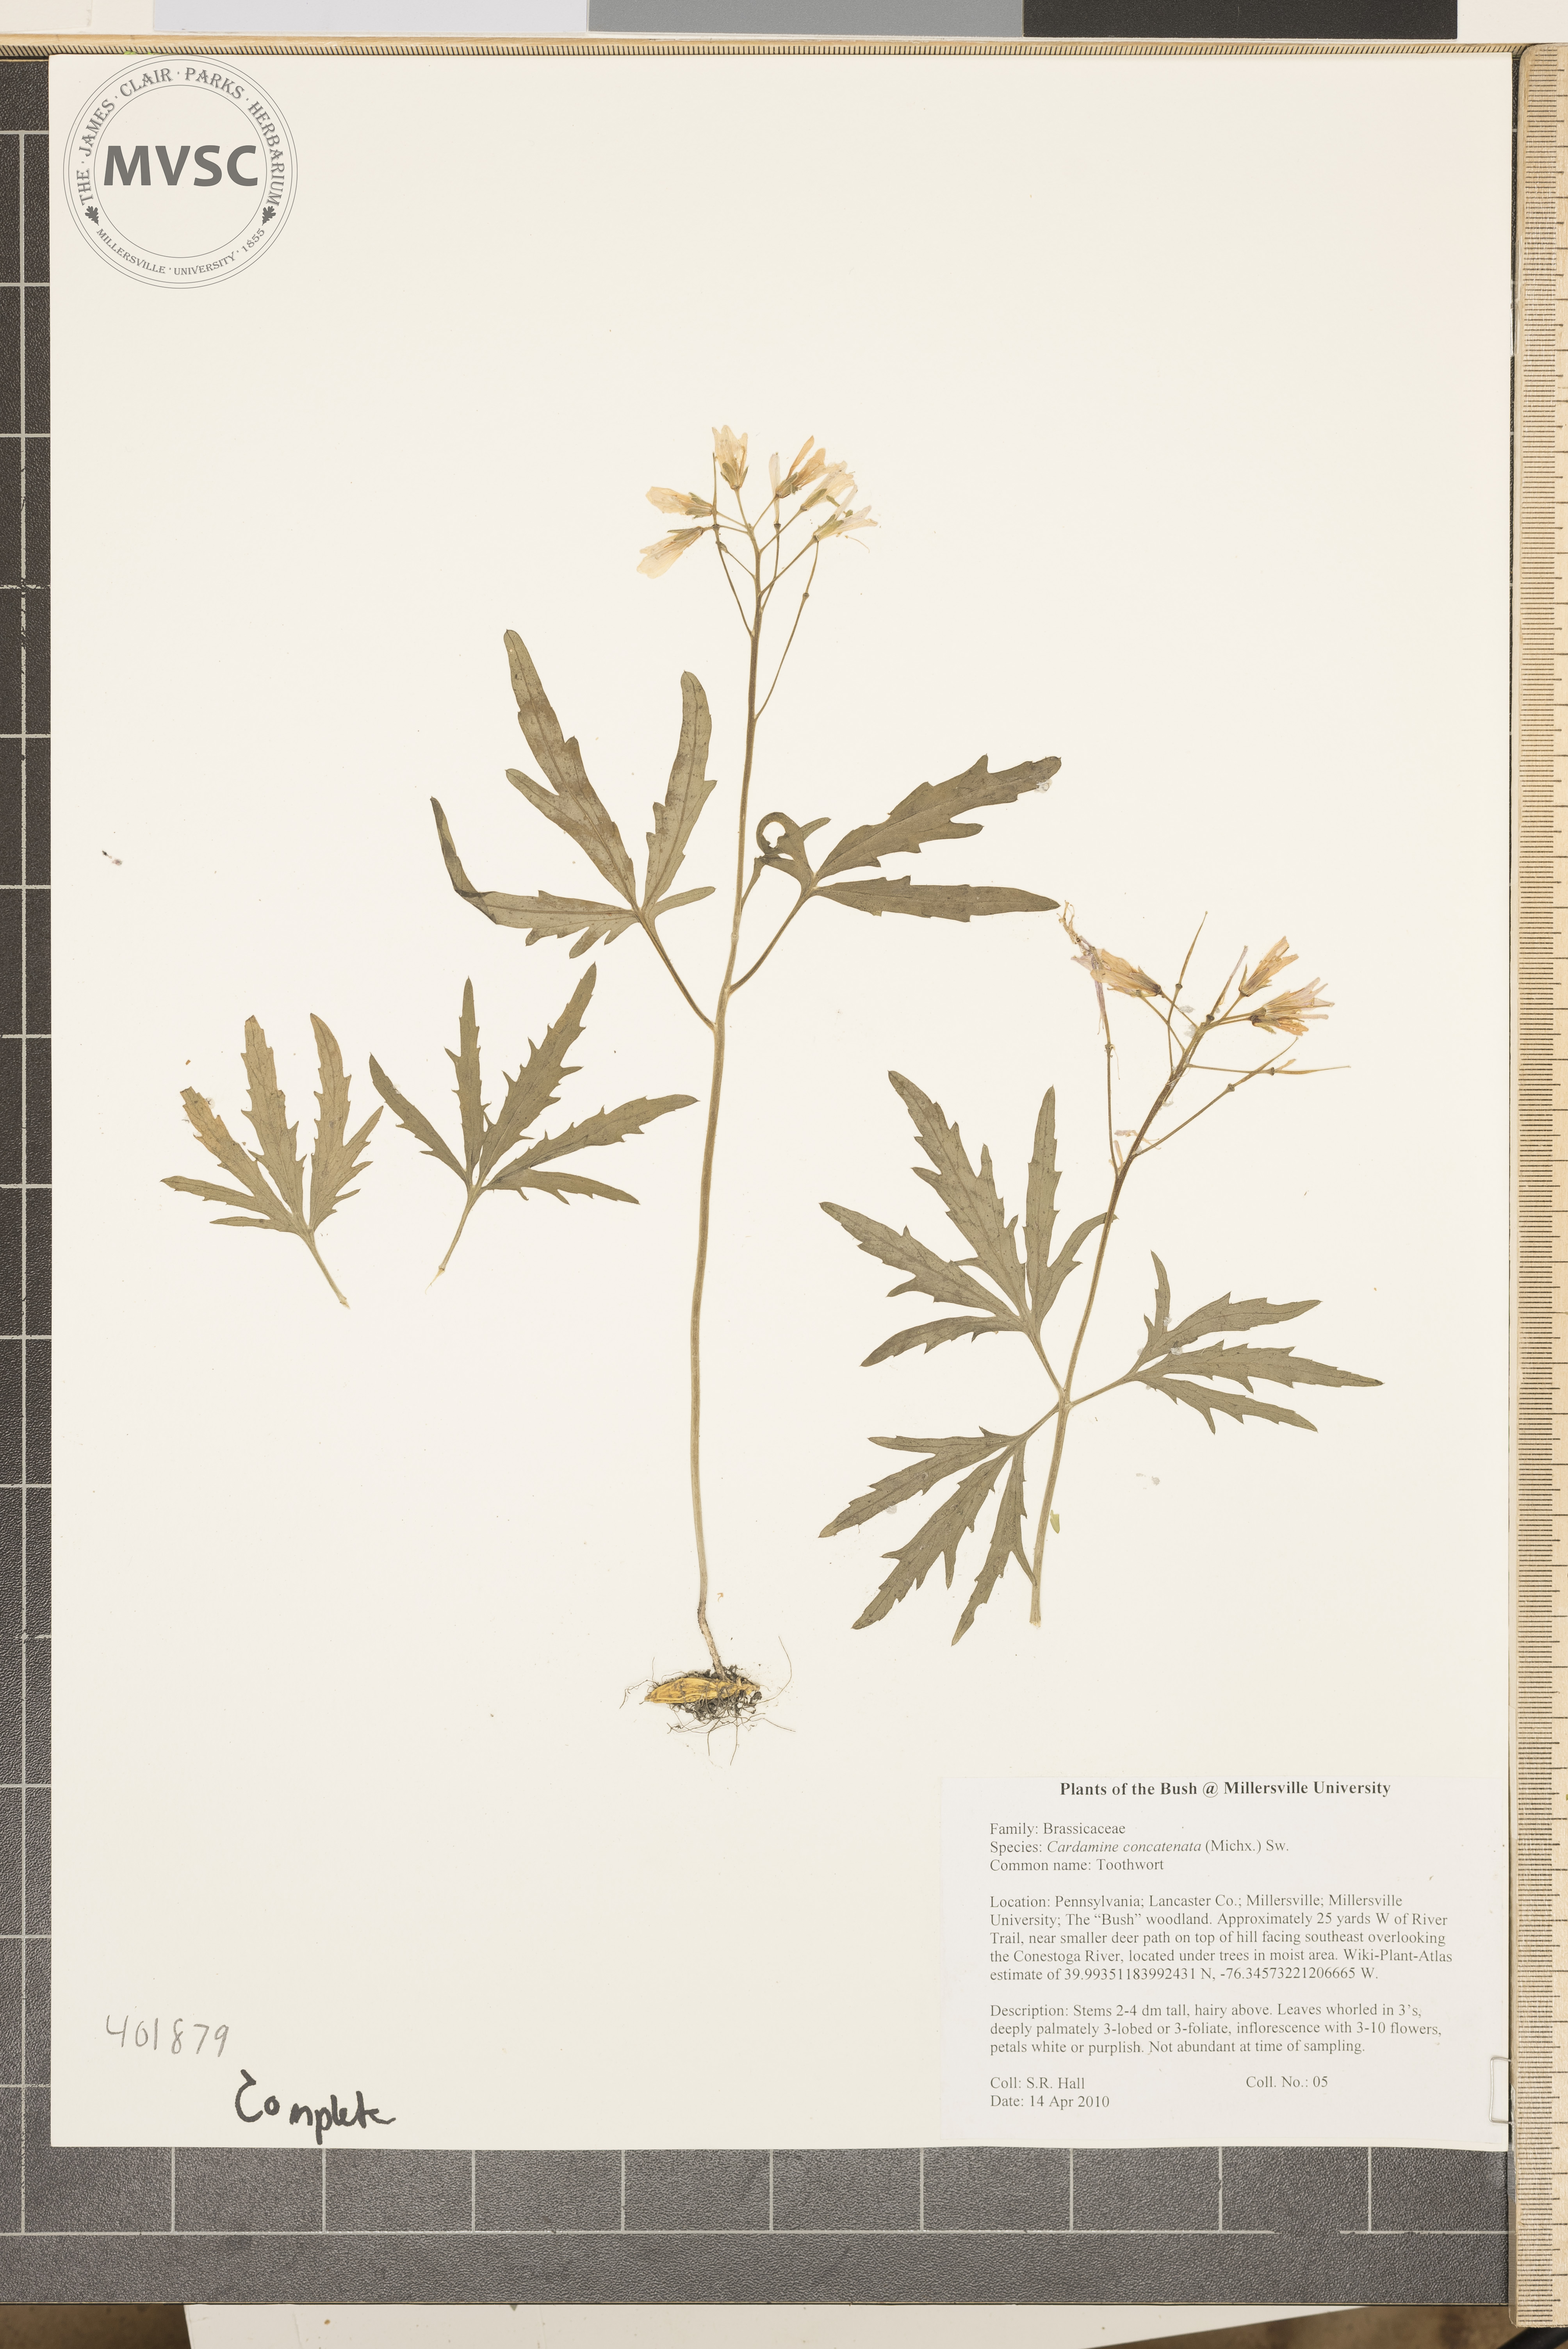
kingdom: Plantae
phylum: Tracheophyta
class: Magnoliopsida
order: Brassicales
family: Brassicaceae
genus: Cardamine
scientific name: Cardamine concatenata
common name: Toothwort
